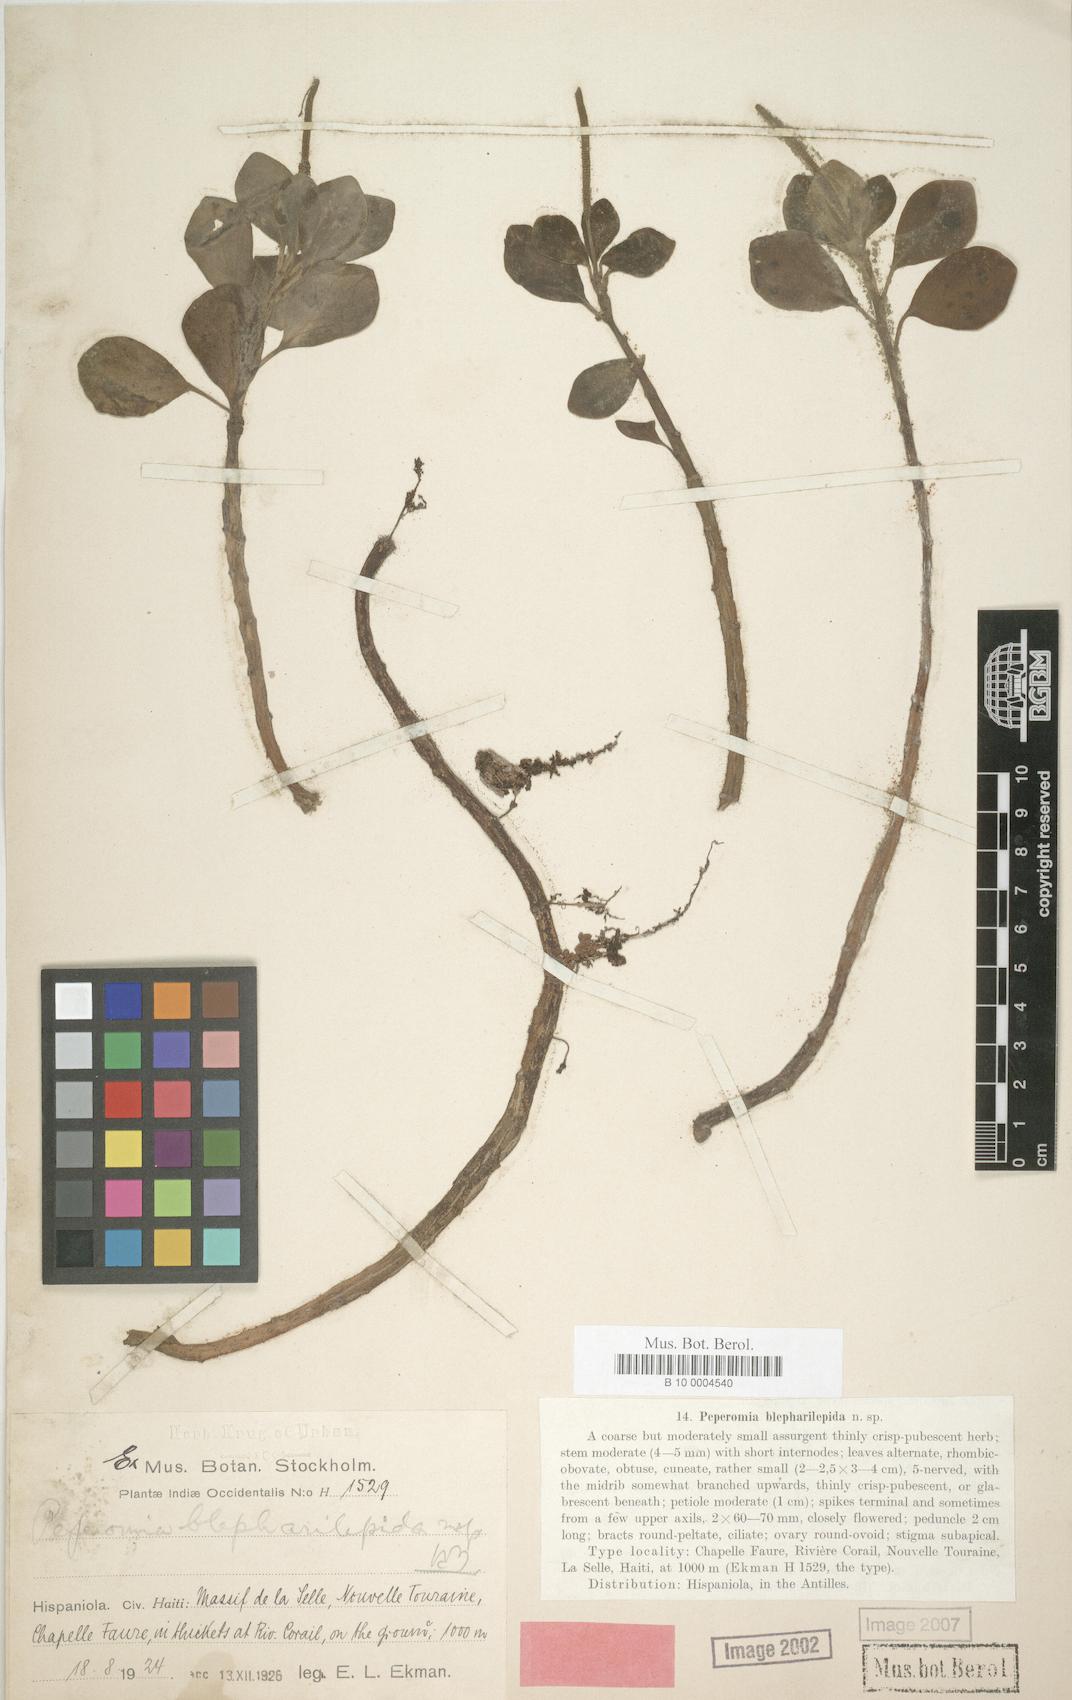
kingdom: Plantae
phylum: Tracheophyta
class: Magnoliopsida
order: Piperales
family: Piperaceae
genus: Peperomia
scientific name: Peperomia hirta
